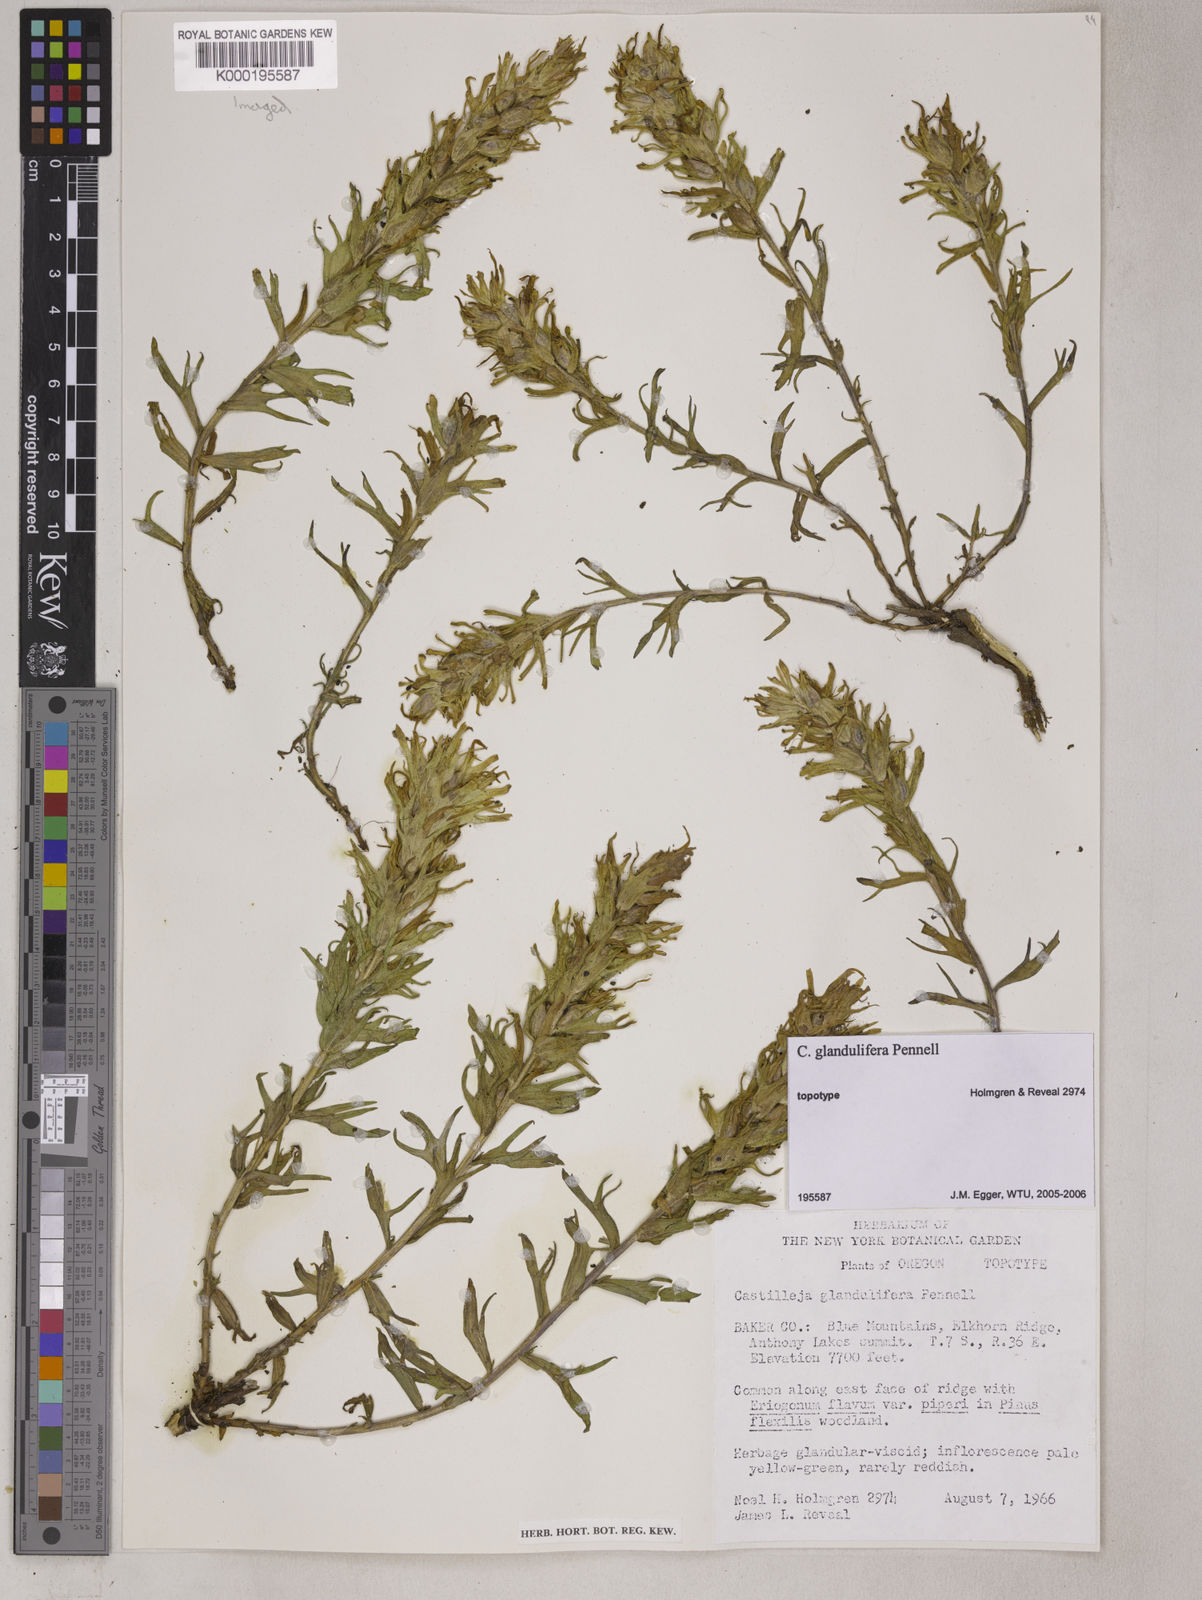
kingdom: Plantae
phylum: Tracheophyta
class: Magnoliopsida
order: Lamiales
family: Orobanchaceae
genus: Castilleja
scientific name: Castilleja glandulifera
